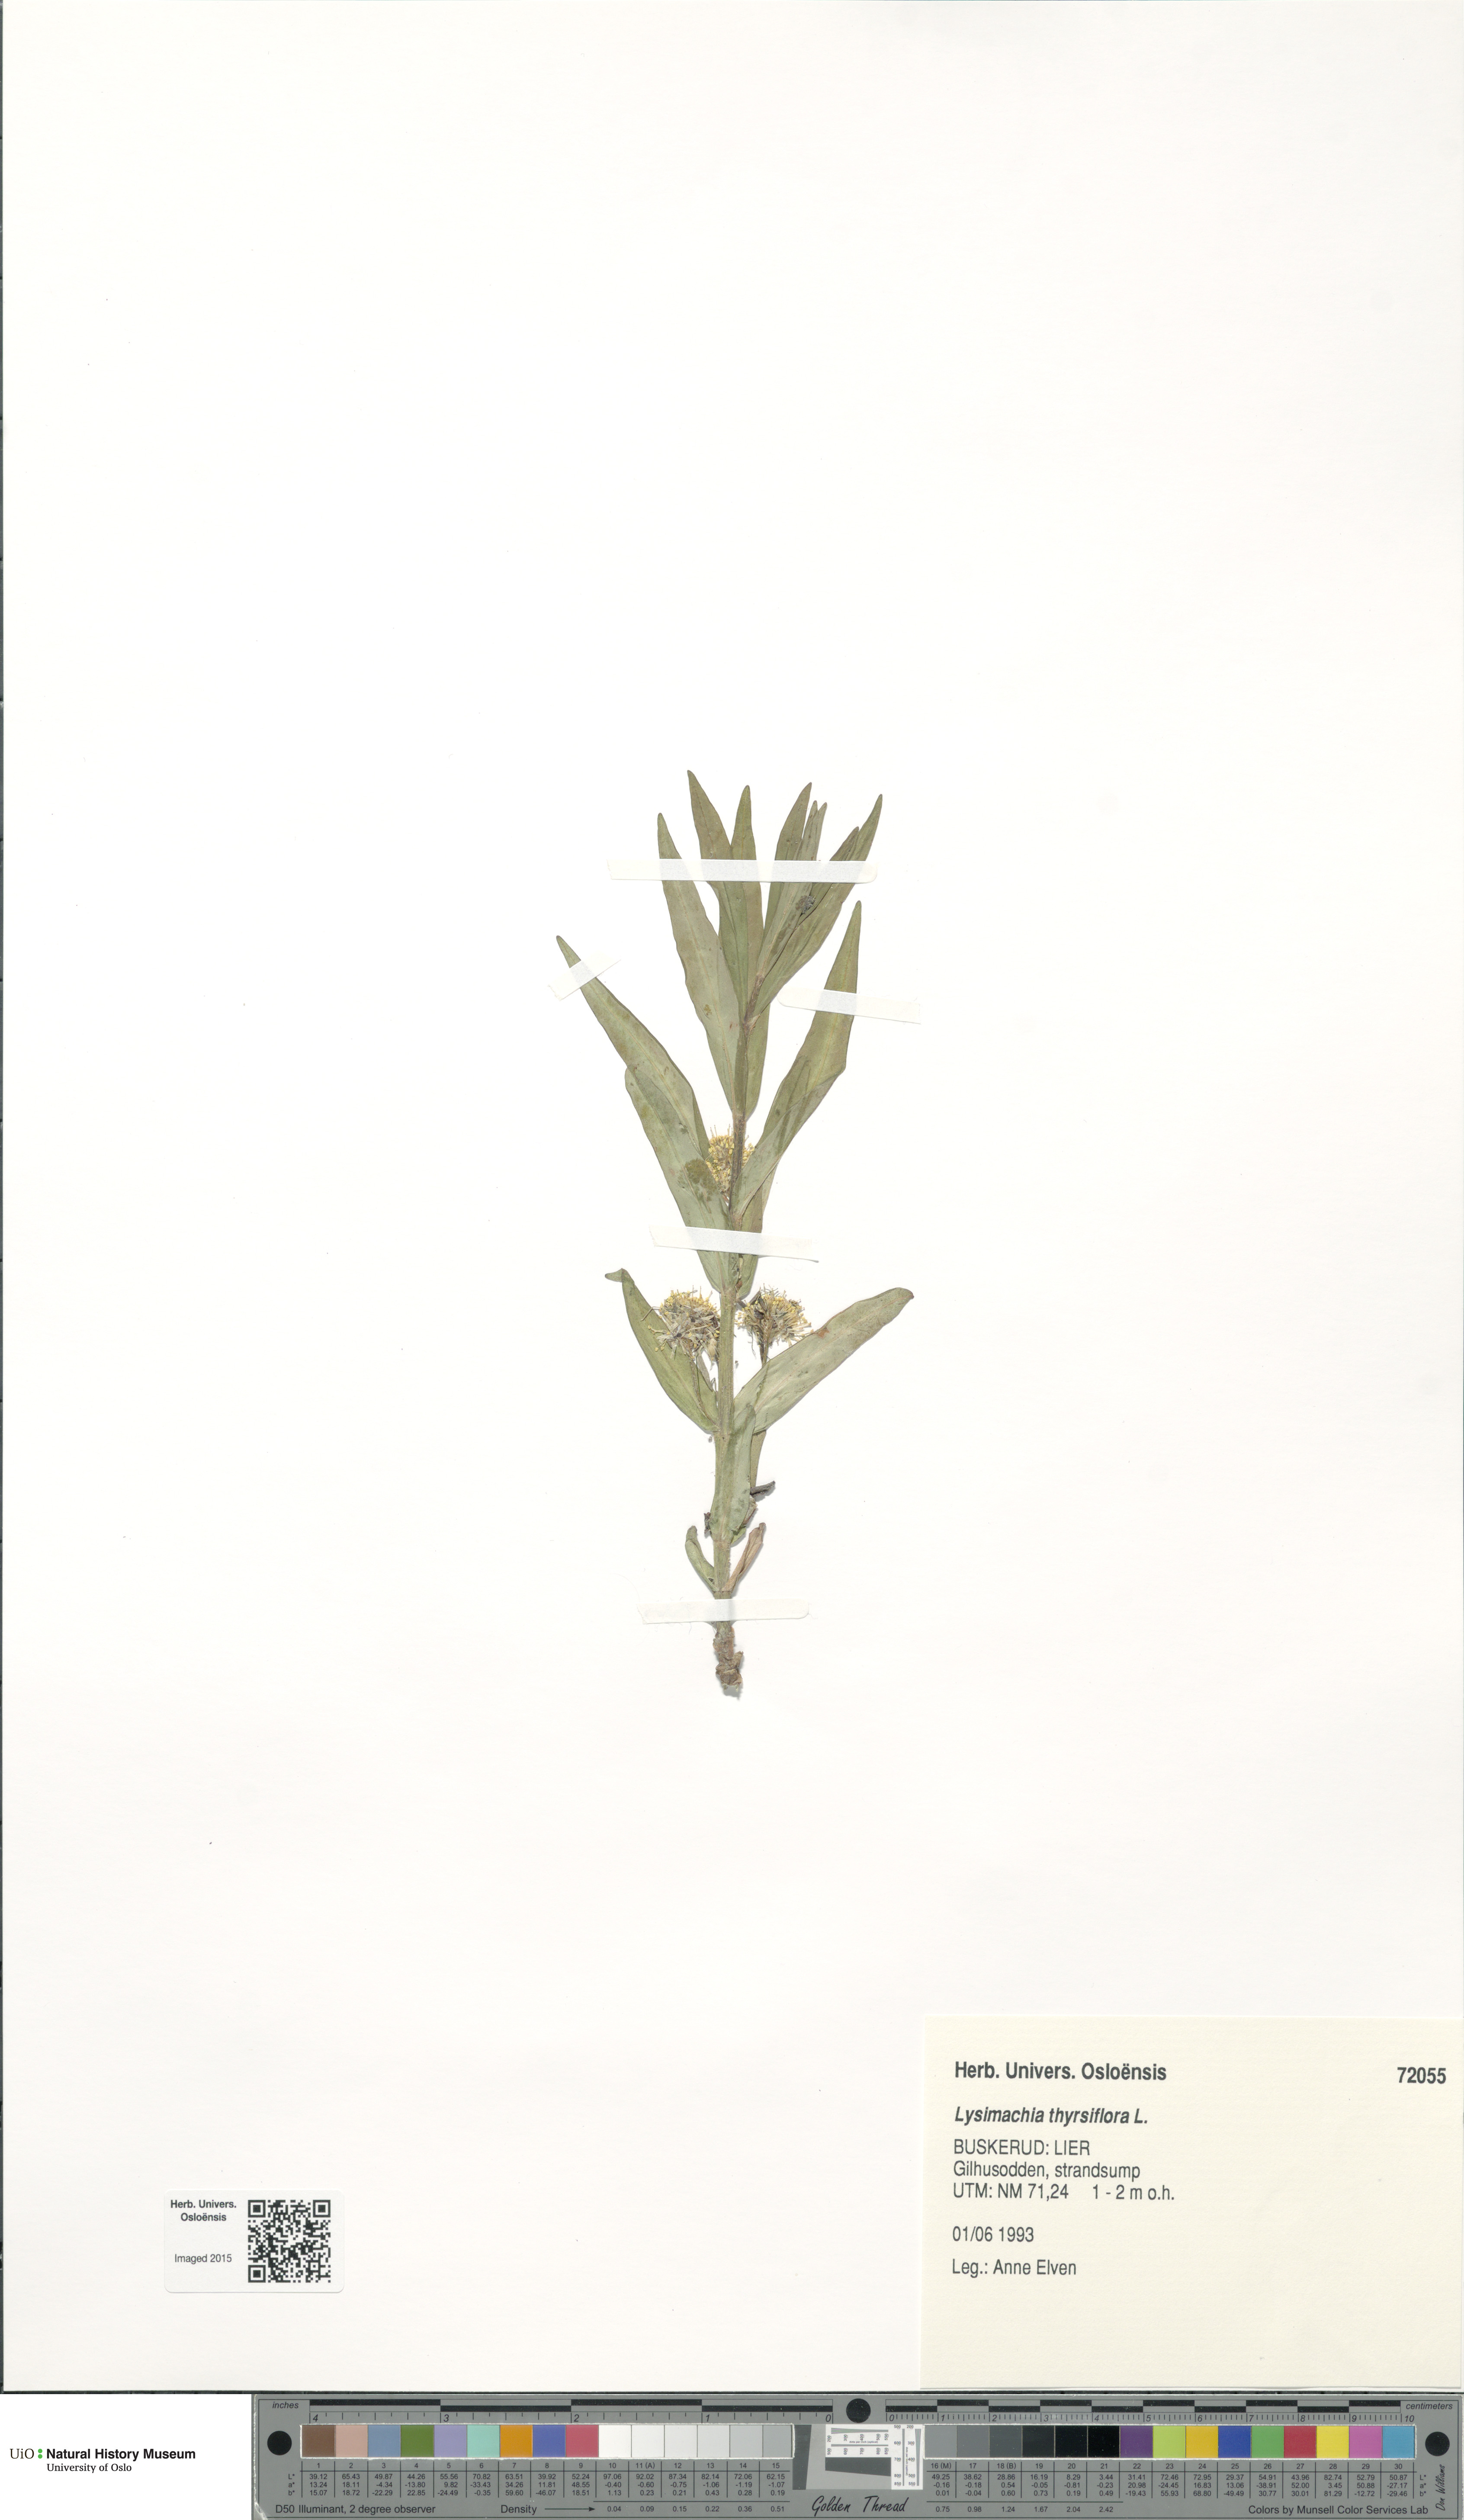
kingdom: Plantae
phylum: Tracheophyta
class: Magnoliopsida
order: Ericales
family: Primulaceae
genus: Lysimachia
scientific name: Lysimachia thyrsiflora
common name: Tufted loosestrife
